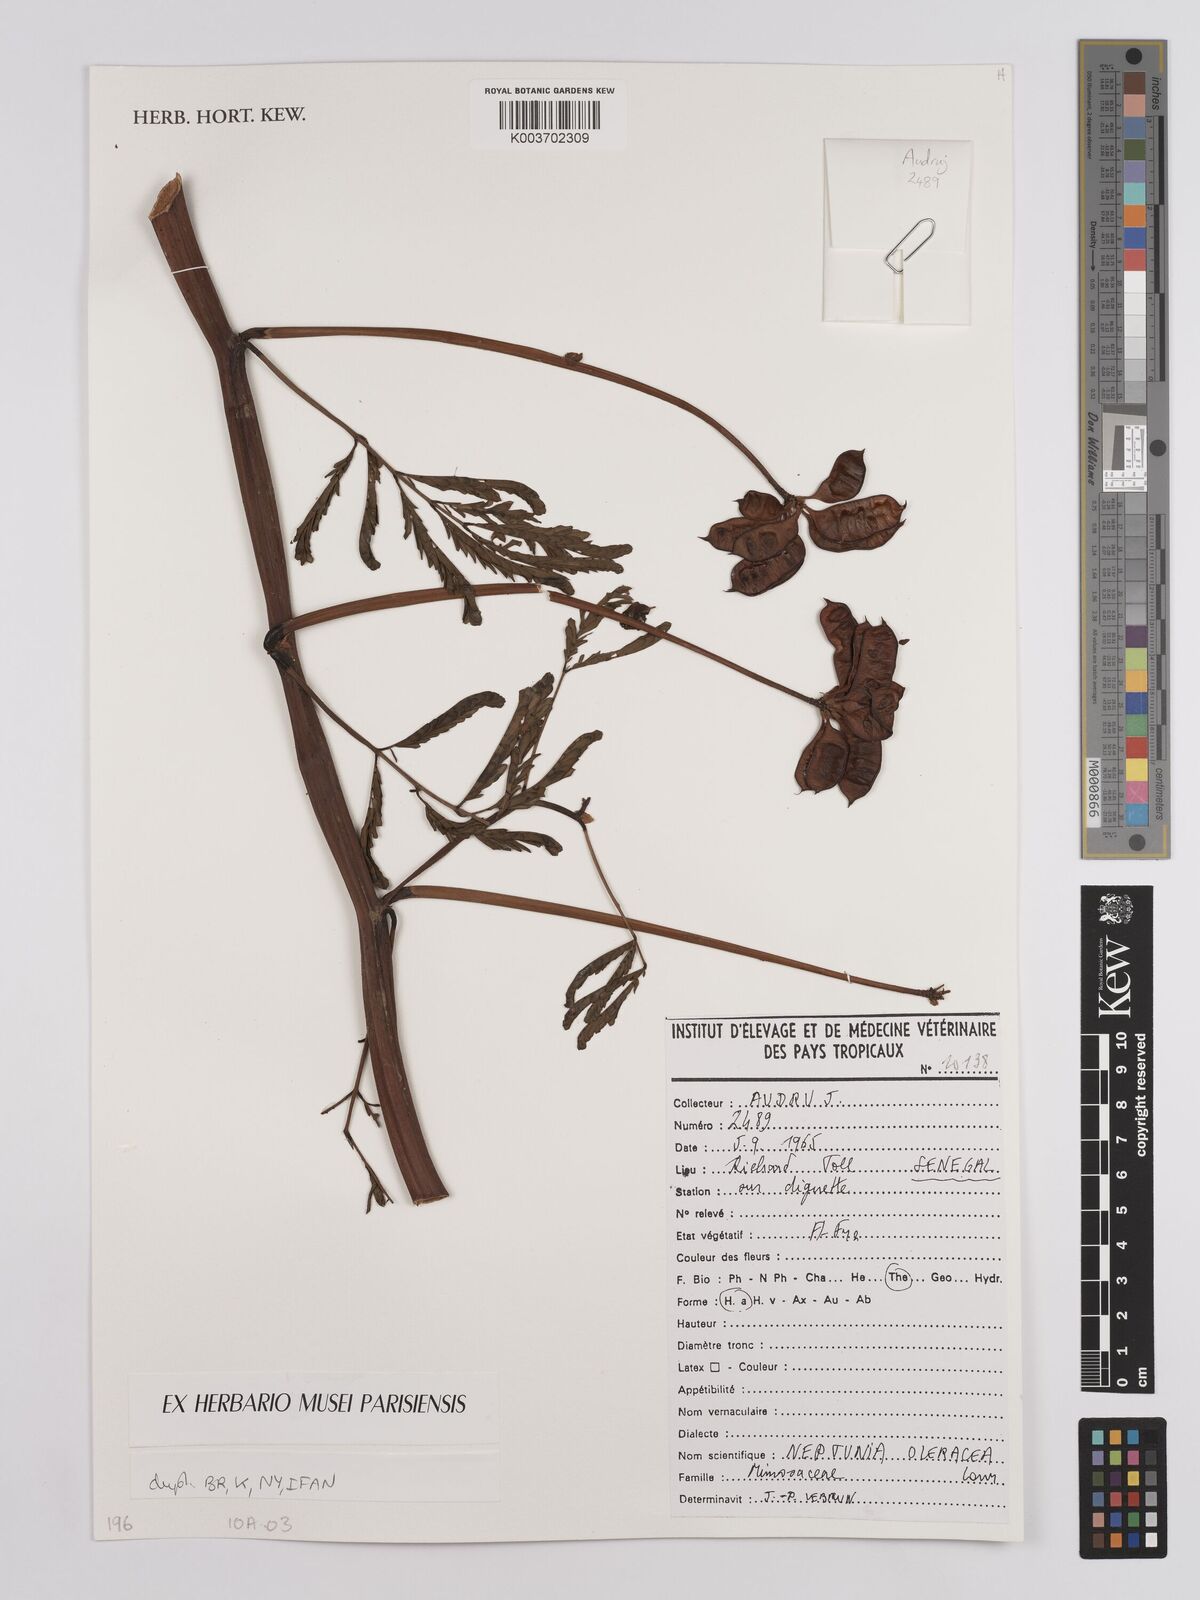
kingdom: Plantae
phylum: Tracheophyta
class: Magnoliopsida
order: Fabales
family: Fabaceae
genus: Neptunia
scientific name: Neptunia prostrata
